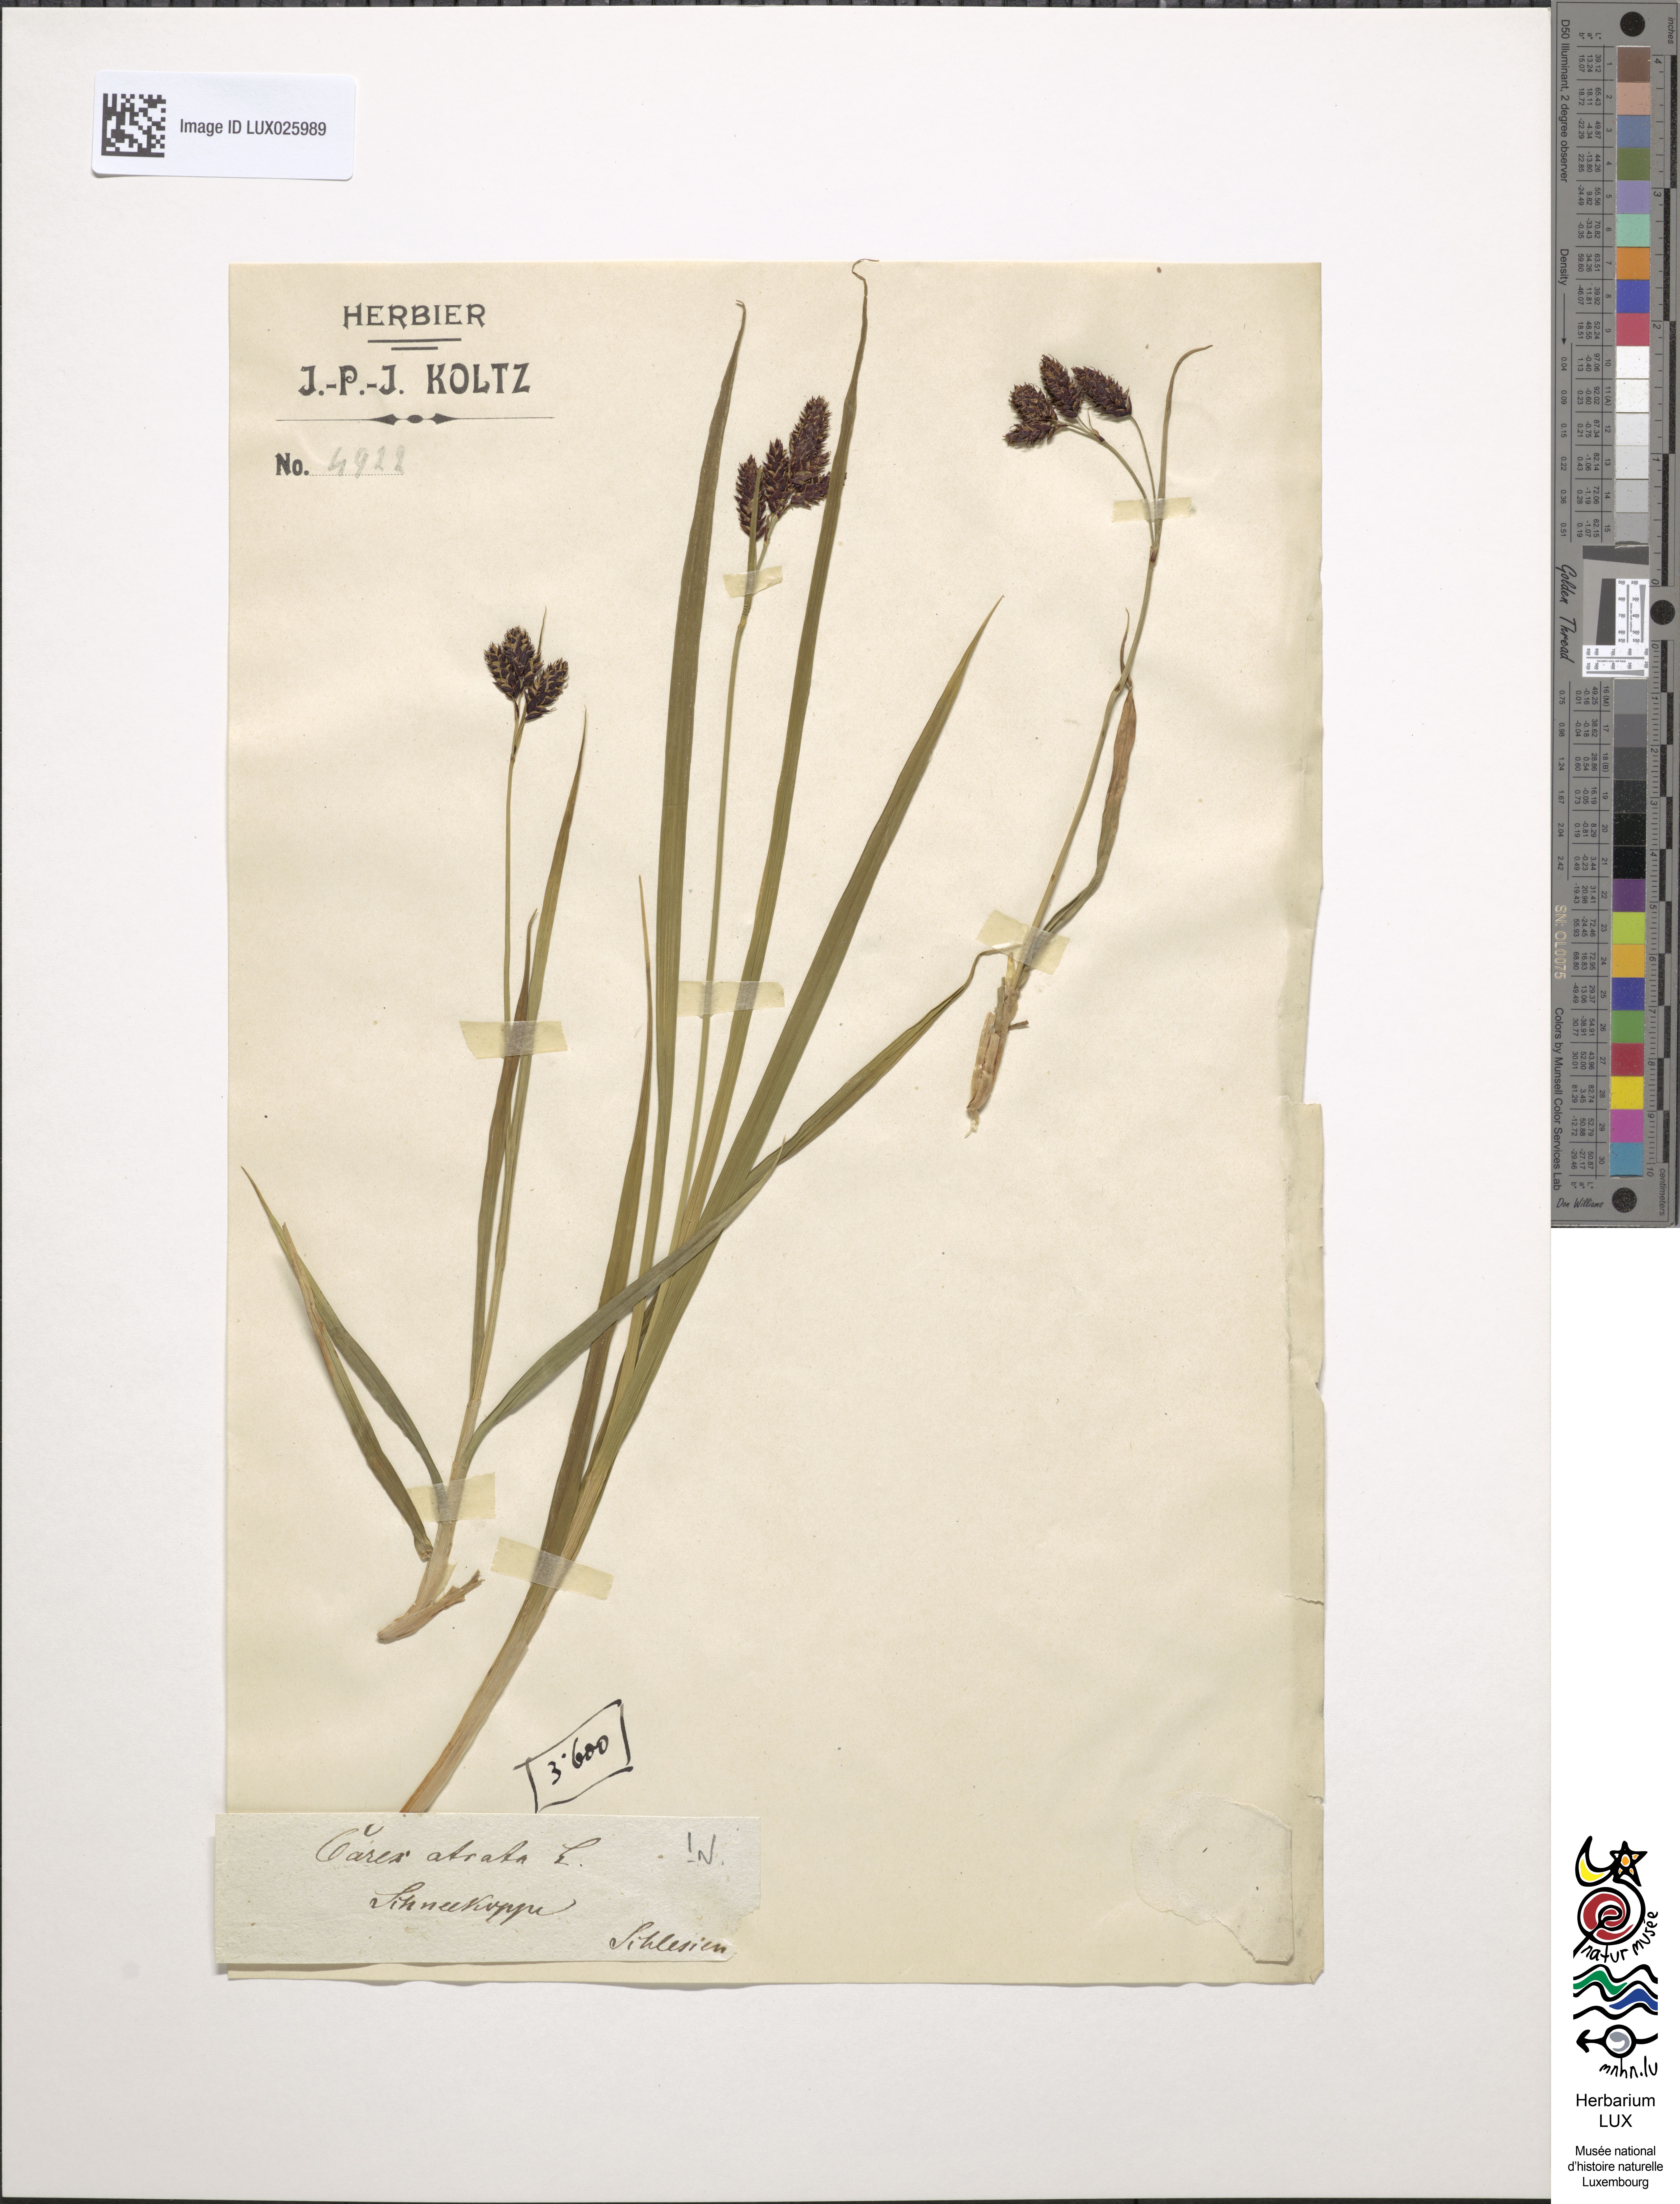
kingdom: Plantae
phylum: Tracheophyta
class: Liliopsida
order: Poales
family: Cyperaceae
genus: Carex
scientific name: Carex atrata
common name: Black alpine sedge
